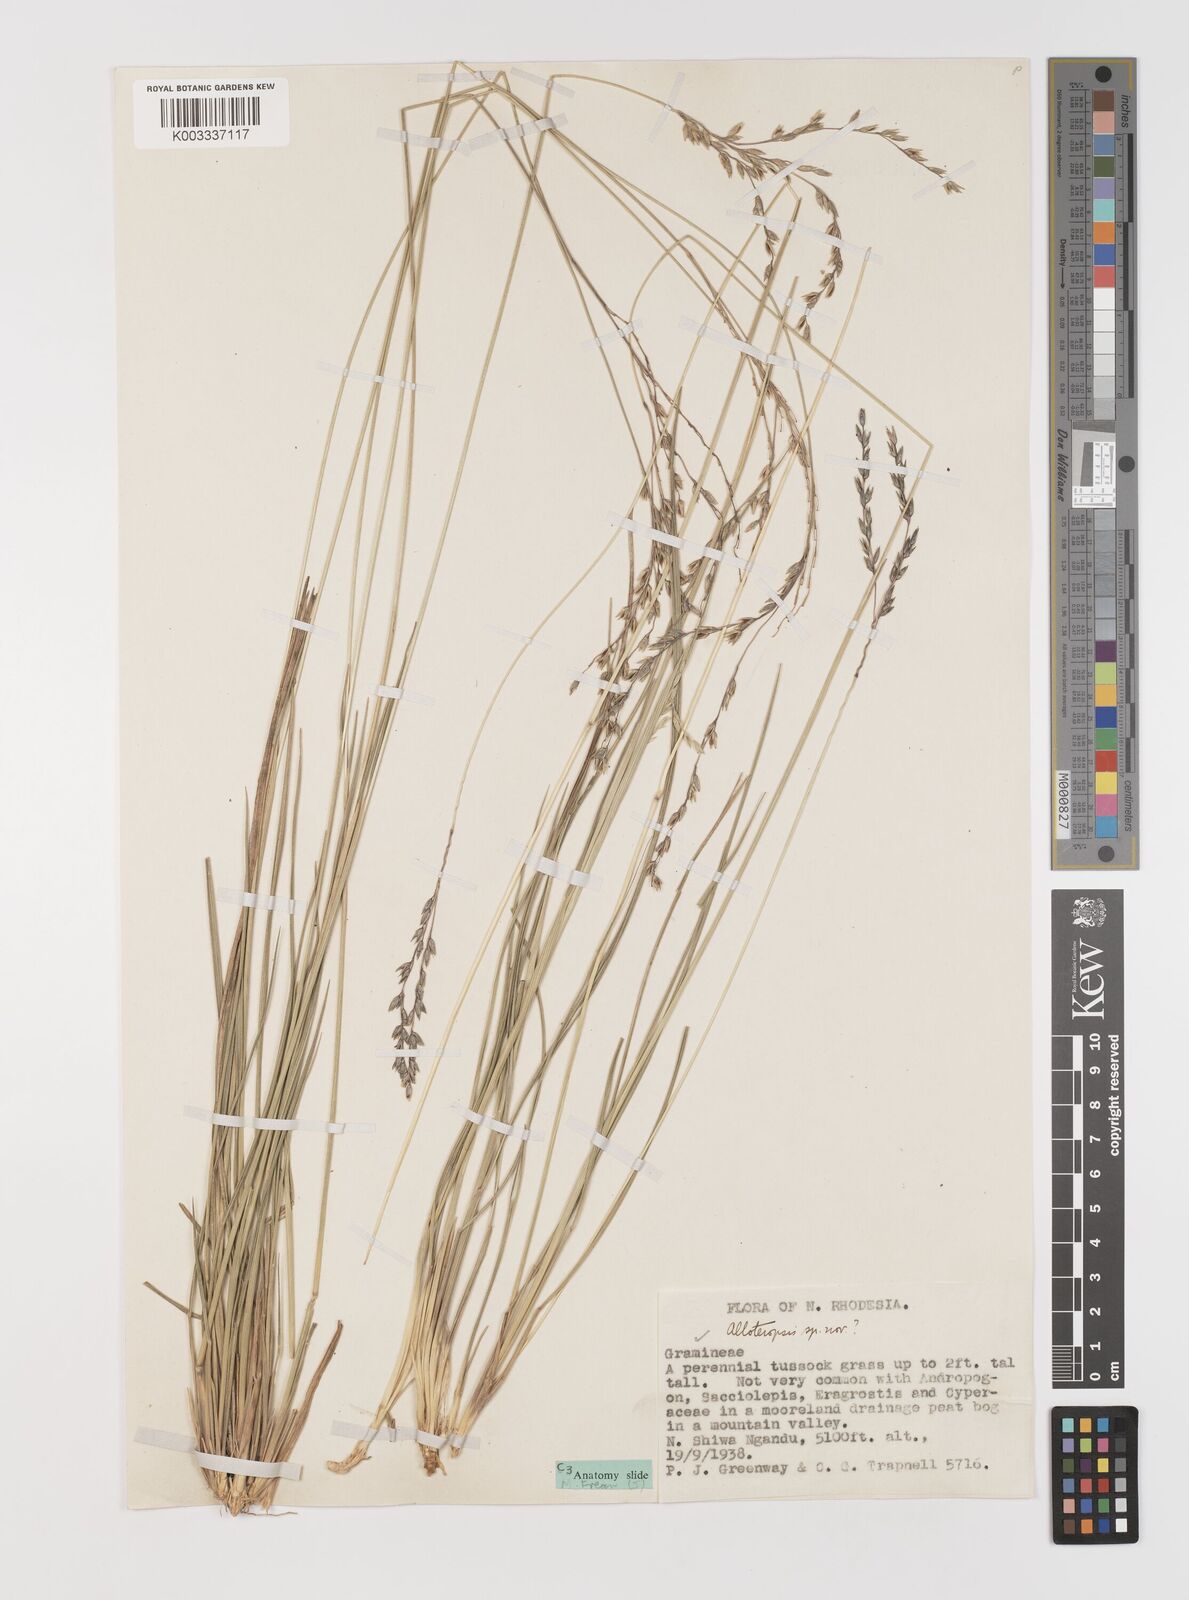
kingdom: Plantae
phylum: Tracheophyta
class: Liliopsida
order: Poales
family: Poaceae
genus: Alloteropsis
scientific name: Alloteropsis angusta
